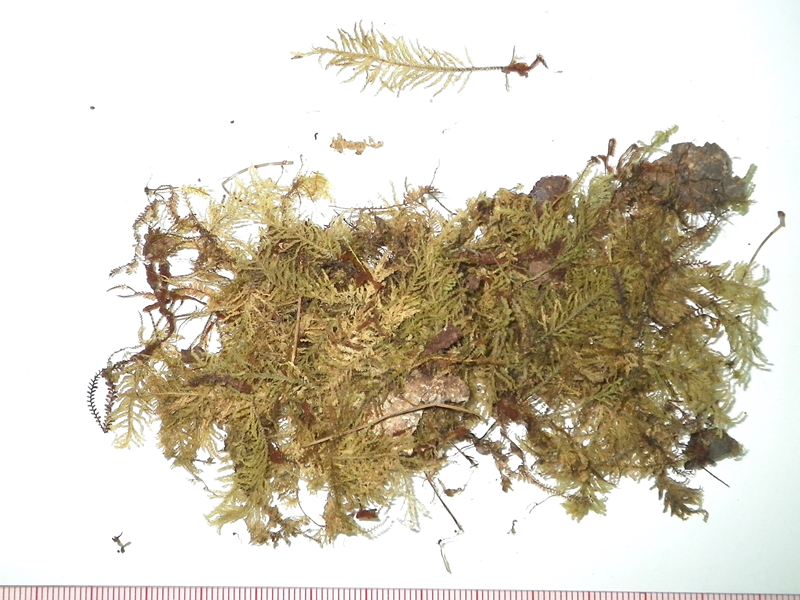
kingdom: Plantae
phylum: Bryophyta
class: Bryopsida
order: Hypopterygiales
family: Hypopterygiaceae
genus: Lopidium
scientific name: Lopidium struthiopteris
